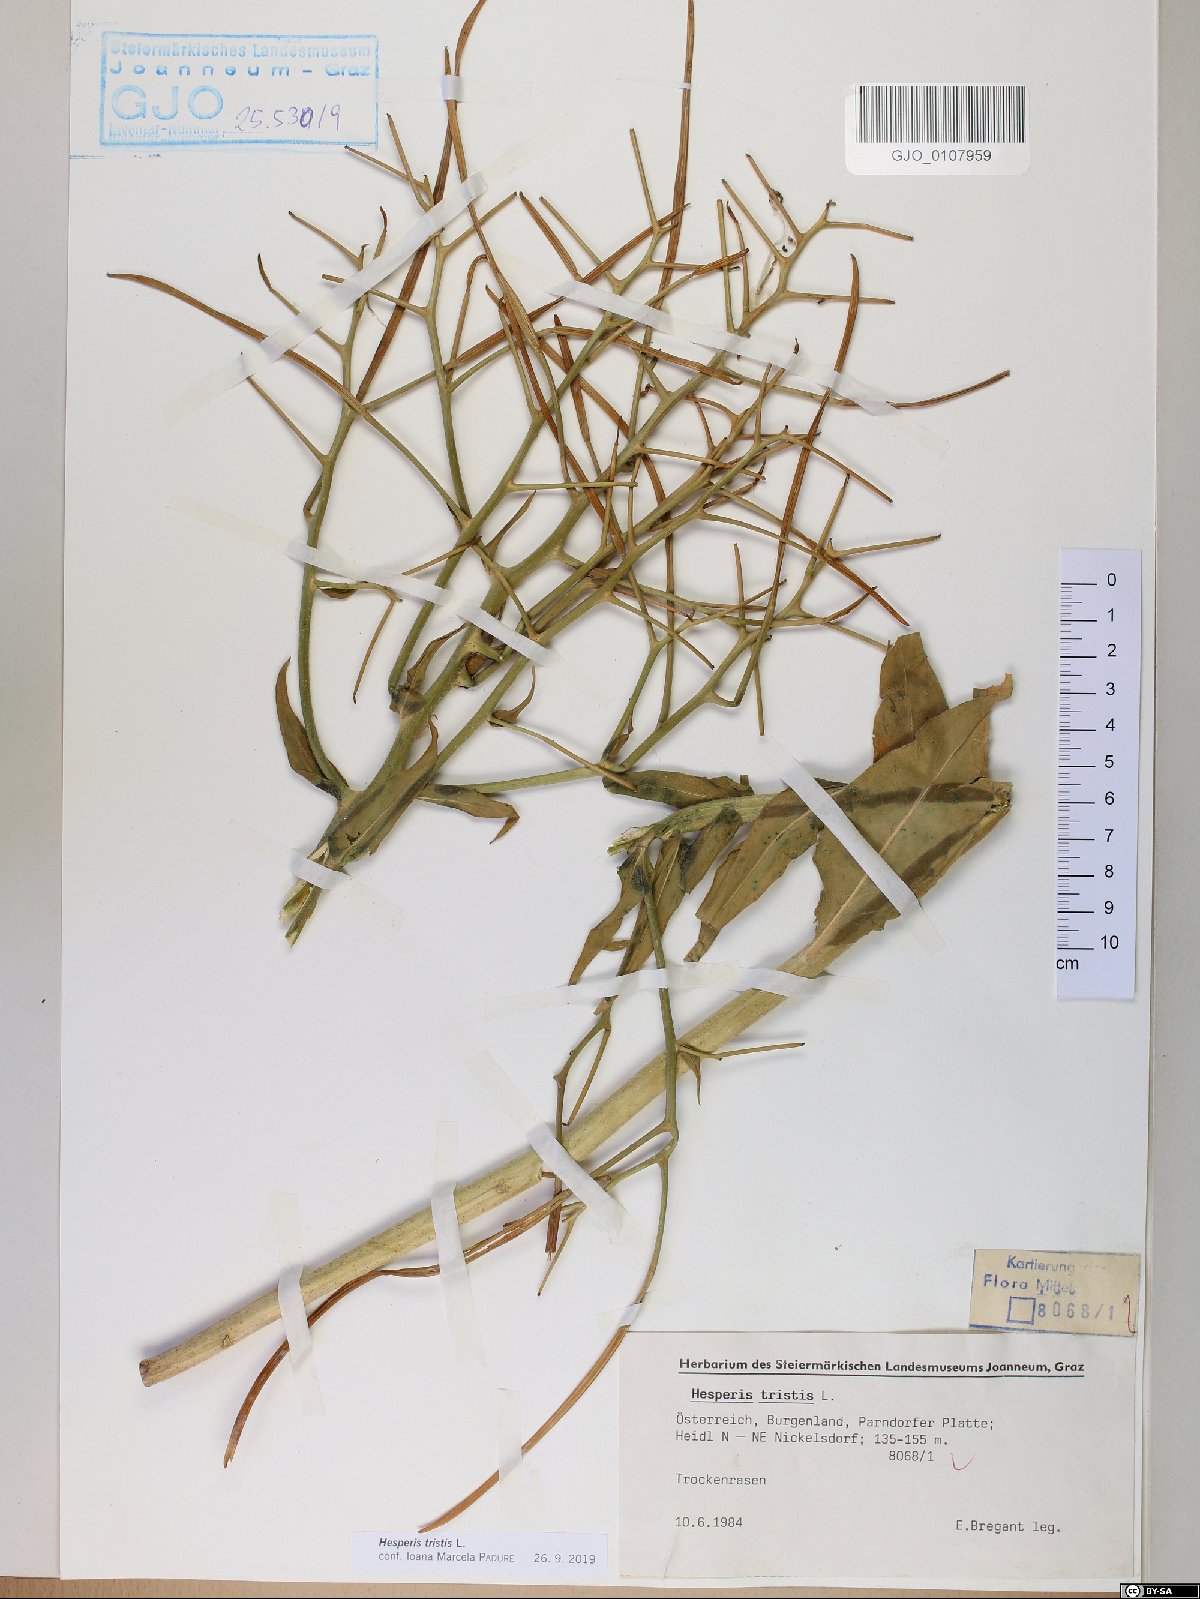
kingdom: Plantae
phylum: Tracheophyta
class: Magnoliopsida
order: Brassicales
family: Brassicaceae
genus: Hesperis
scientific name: Hesperis tristis
